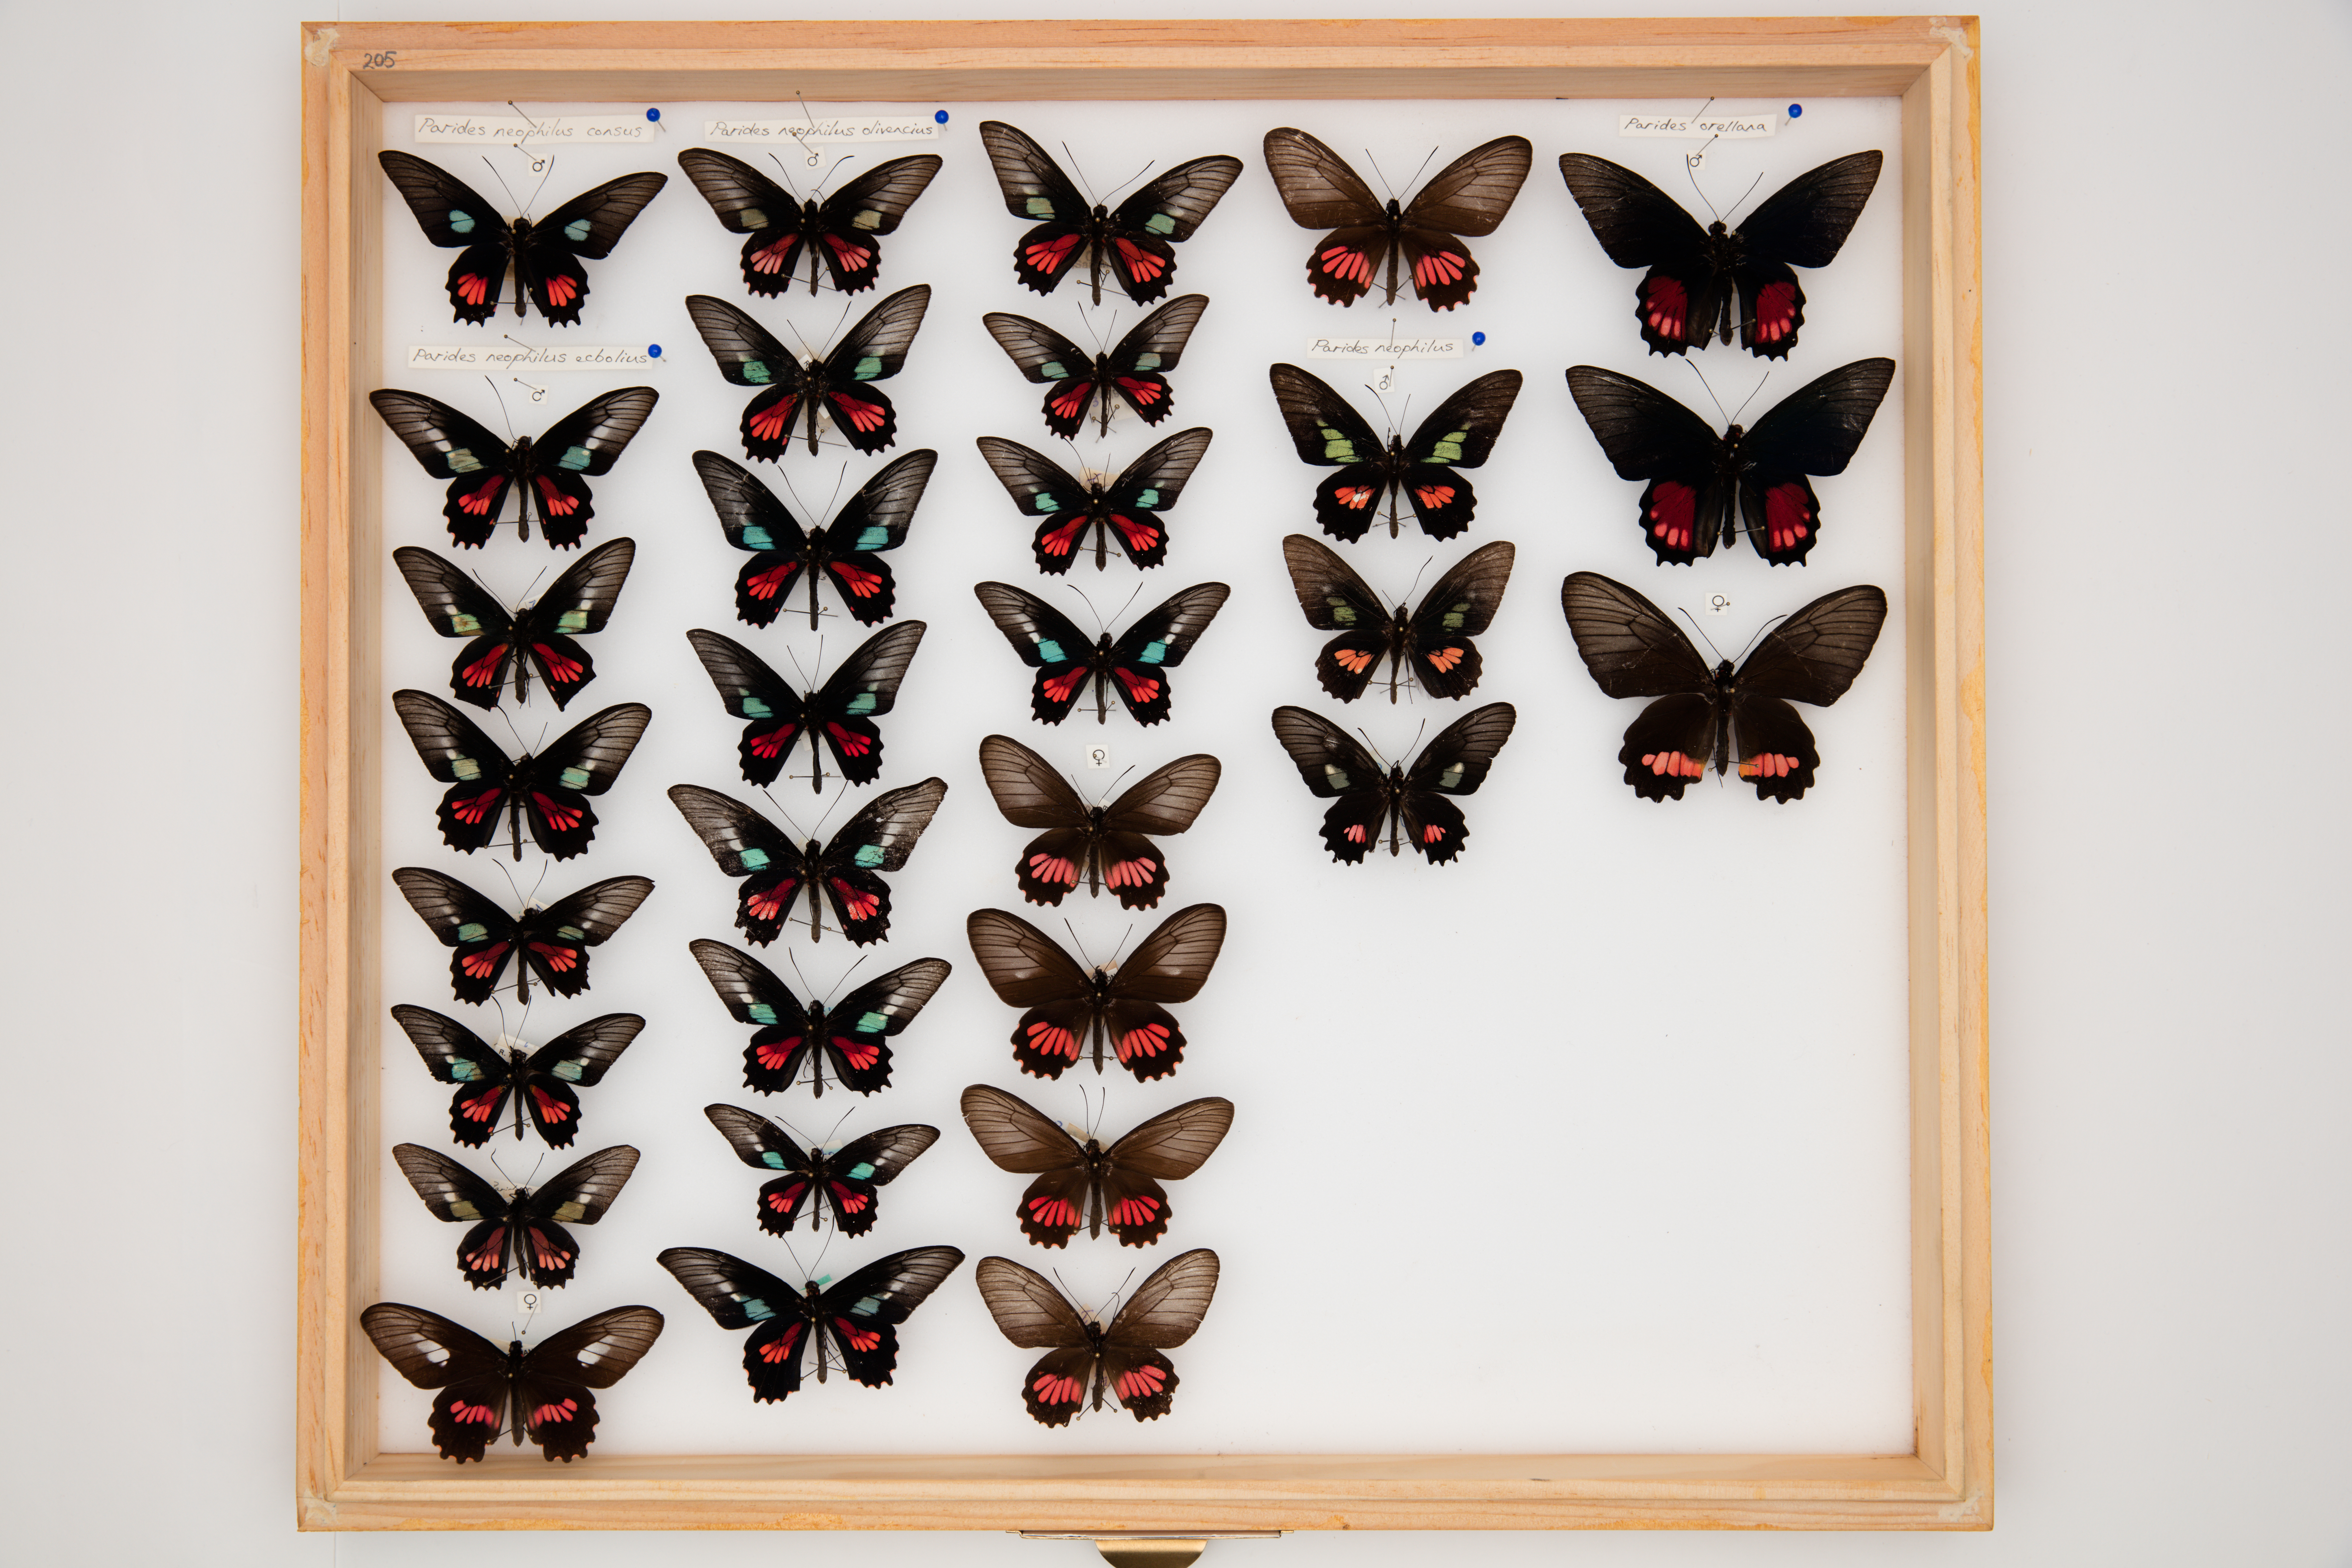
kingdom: Animalia
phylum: Arthropoda
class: Insecta
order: Lepidoptera
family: Papilionidae
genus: Parides
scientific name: Parides neophilus
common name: Spear-winged cattle heart
